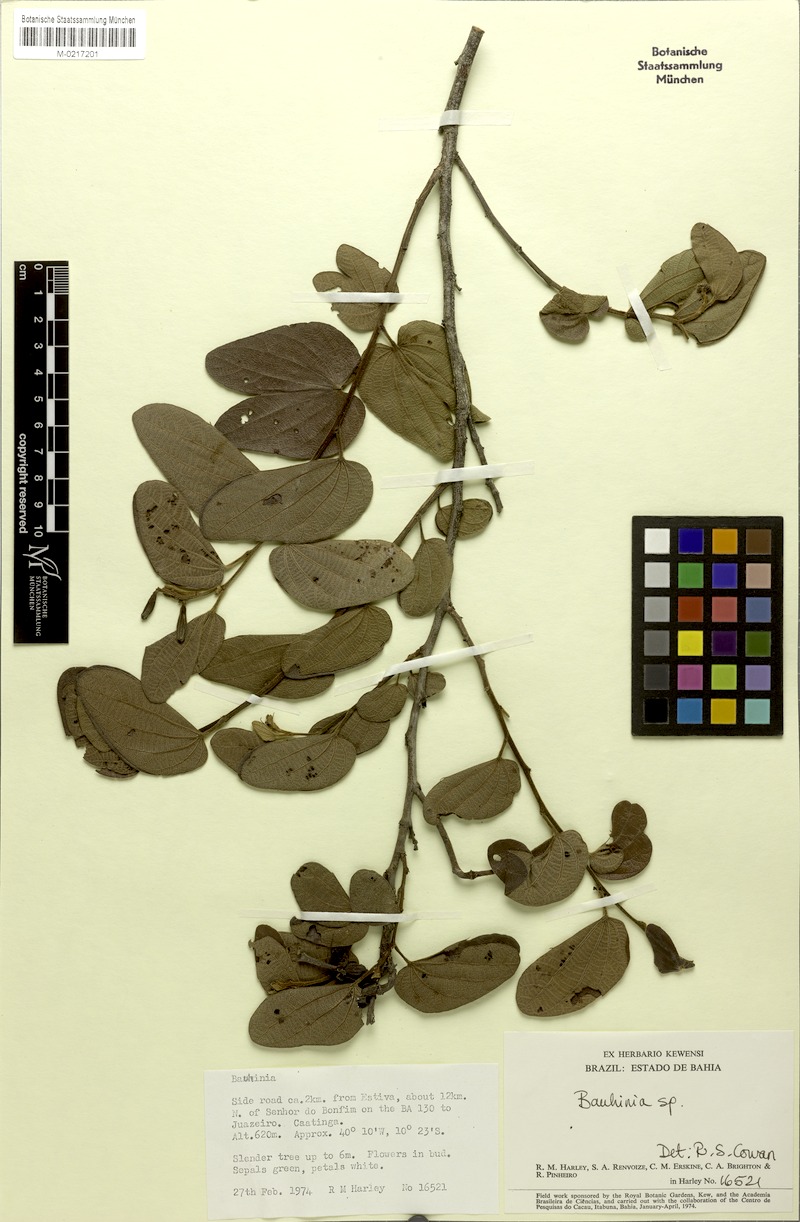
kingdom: Plantae
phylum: Tracheophyta
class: Magnoliopsida
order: Fabales
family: Fabaceae
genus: Bauhinia
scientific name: Bauhinia subclavata
